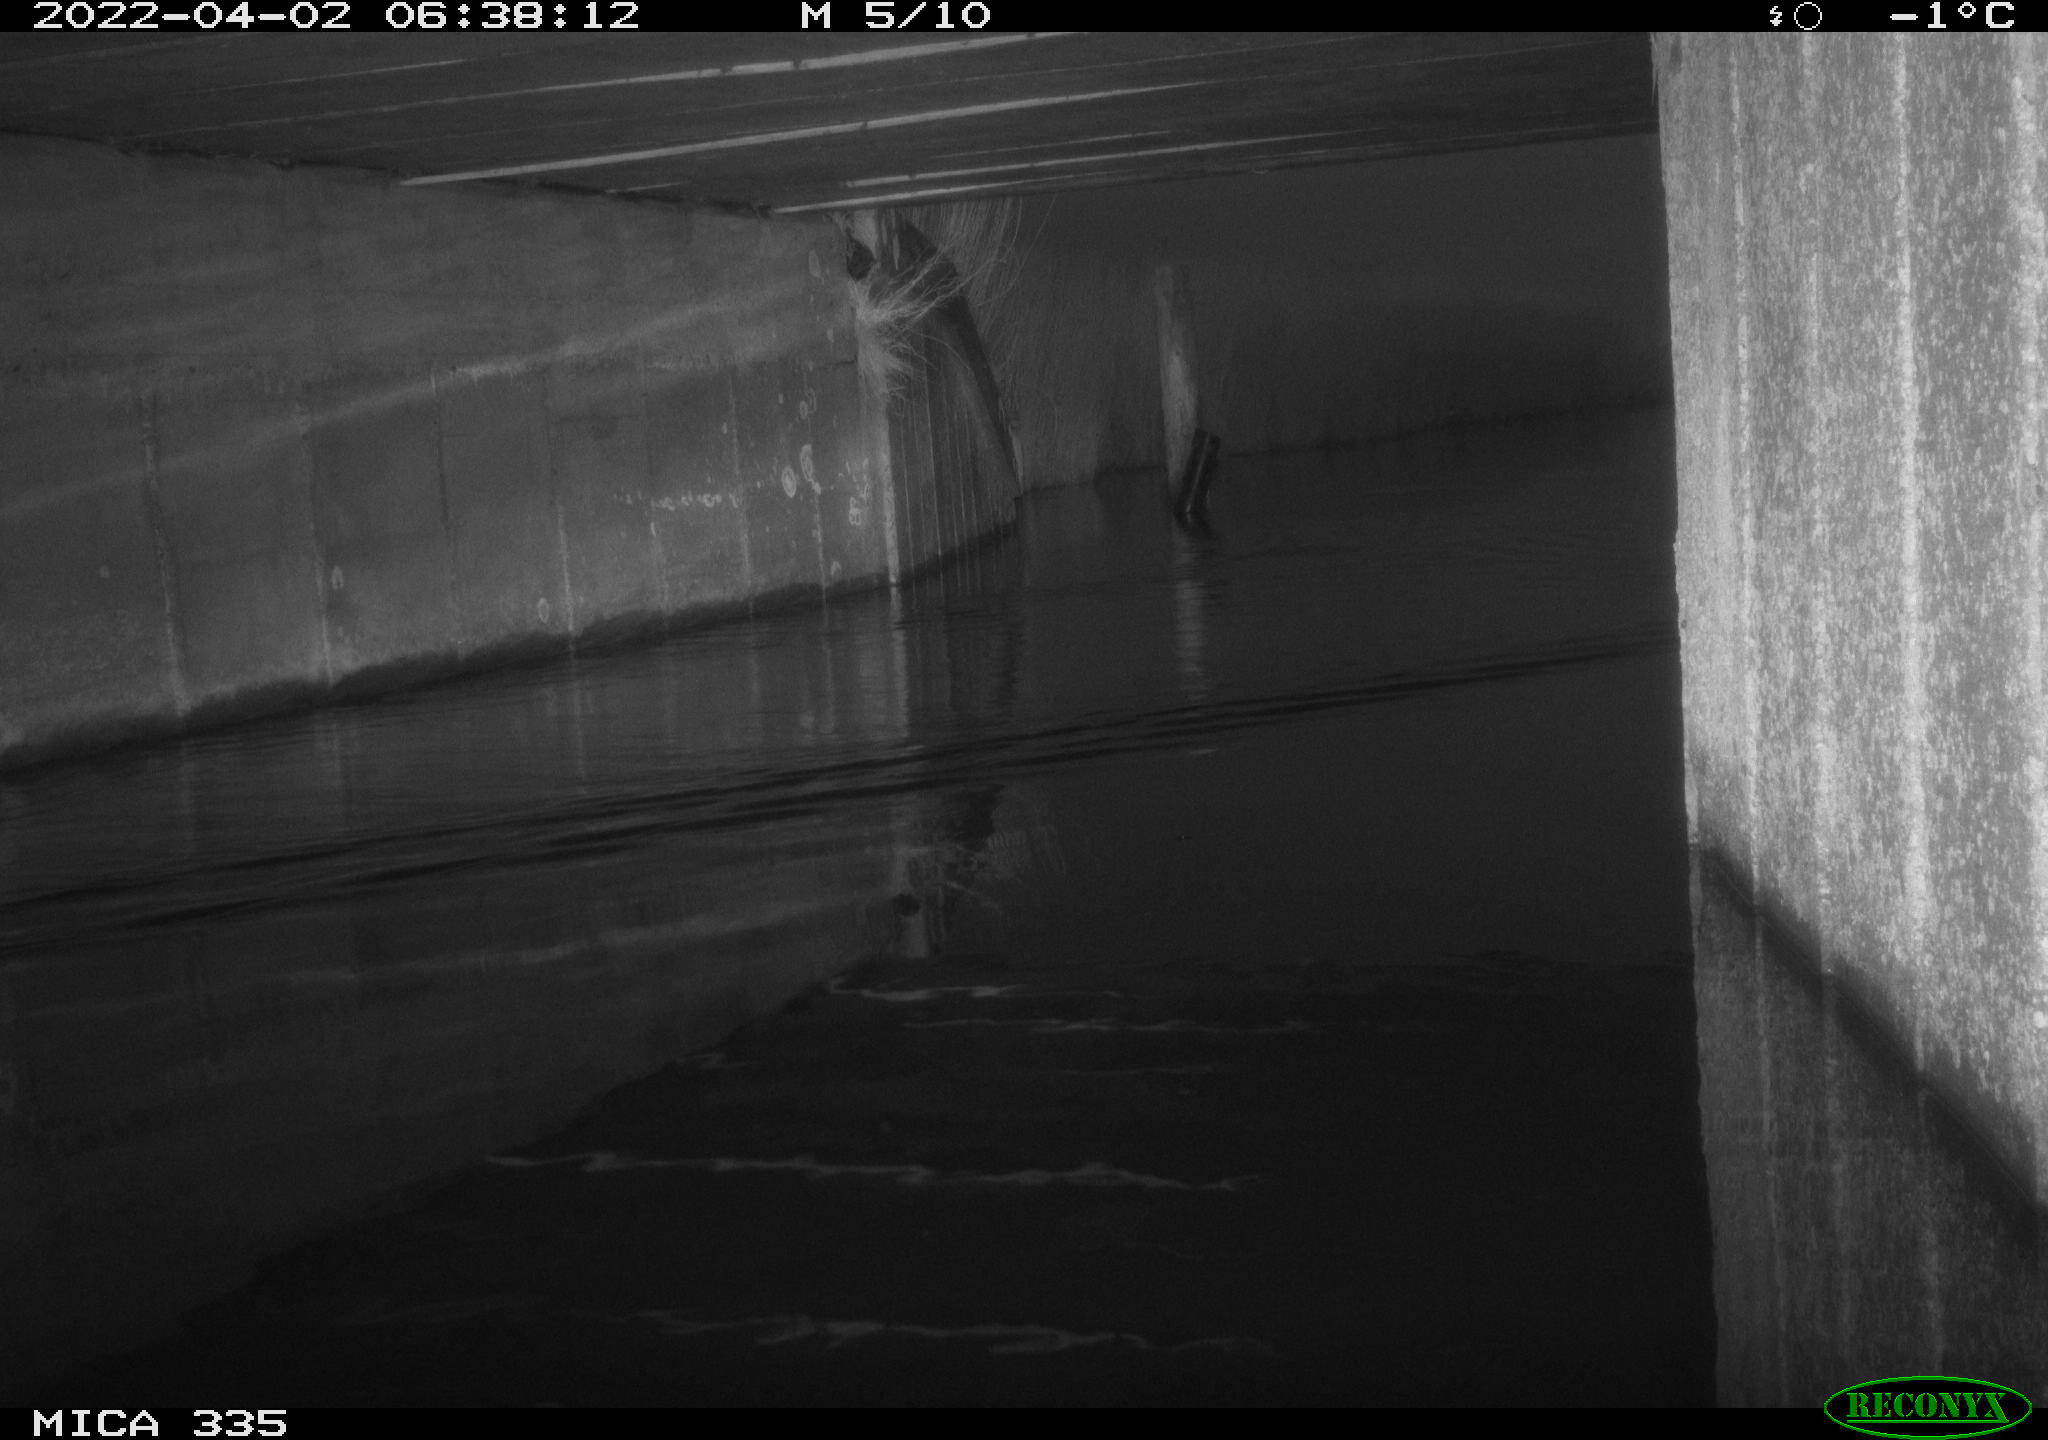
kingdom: Animalia
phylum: Chordata
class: Aves
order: Anseriformes
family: Anatidae
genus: Anas
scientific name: Anas platyrhynchos
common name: Mallard
